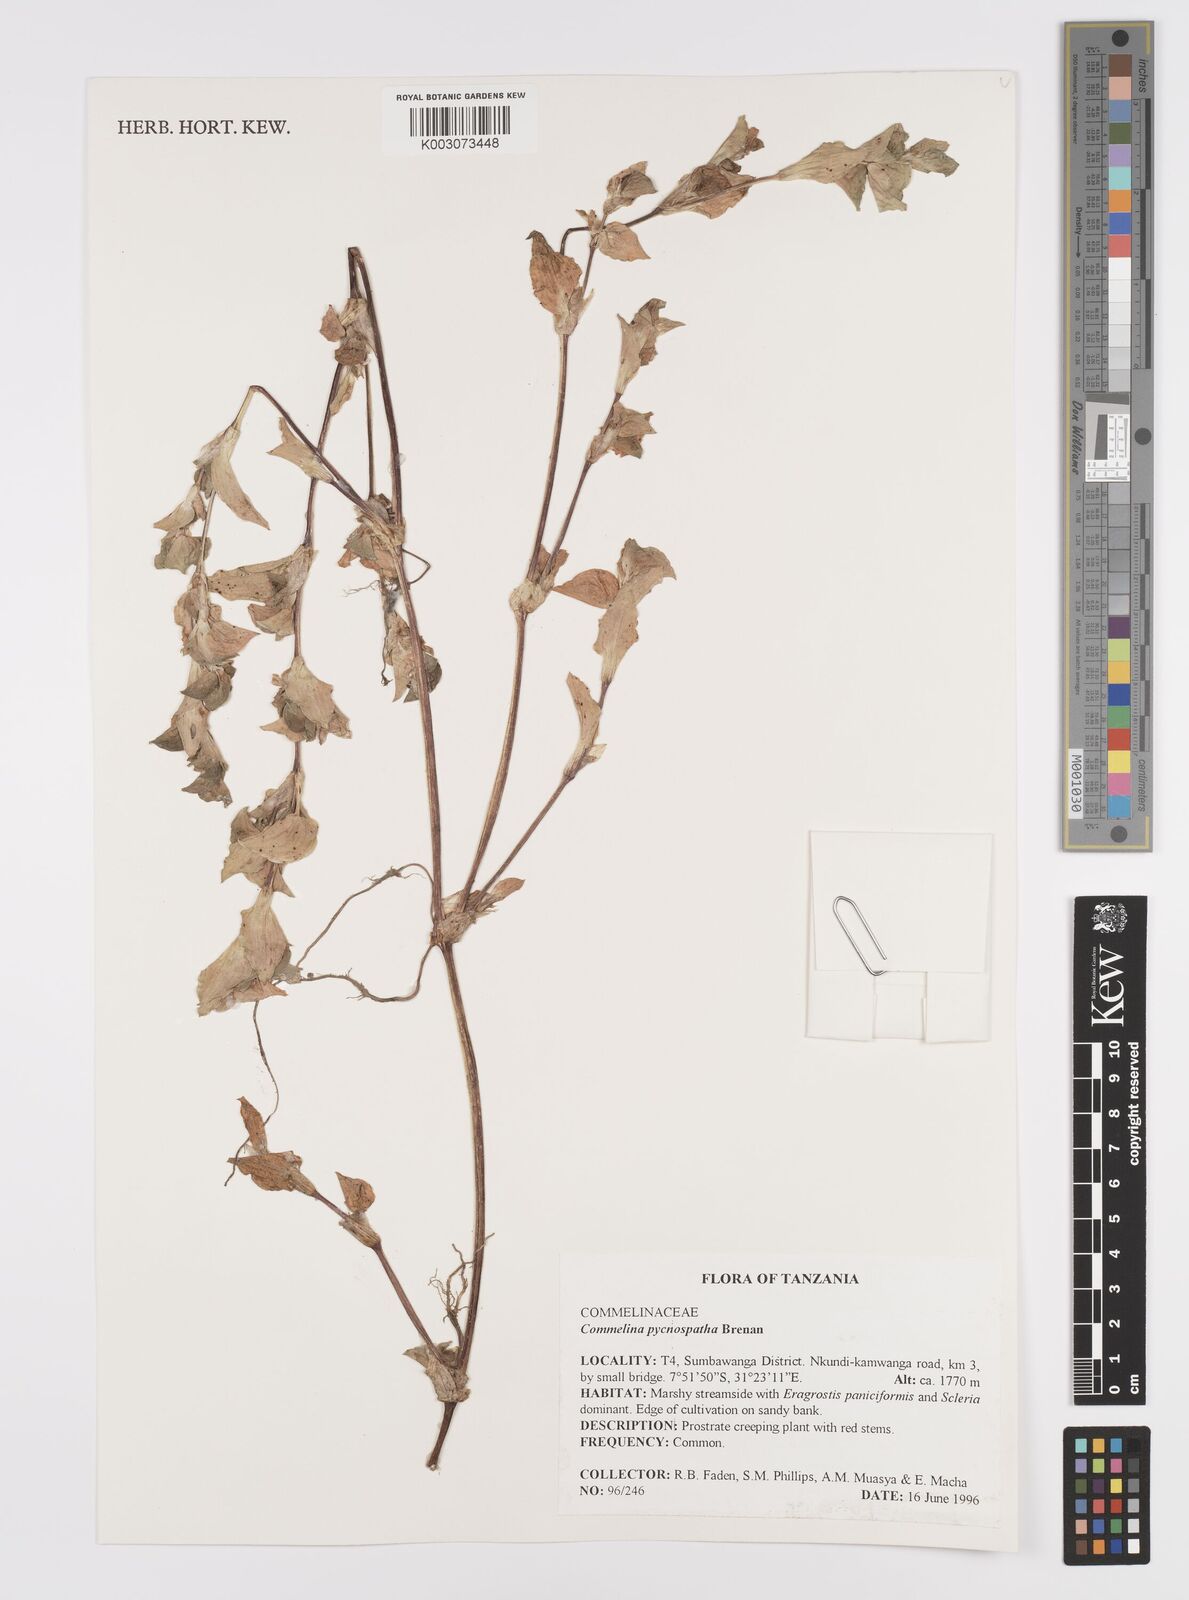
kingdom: Plantae
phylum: Tracheophyta
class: Liliopsida
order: Commelinales
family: Commelinaceae
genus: Commelina
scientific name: Commelina pycnospatha
